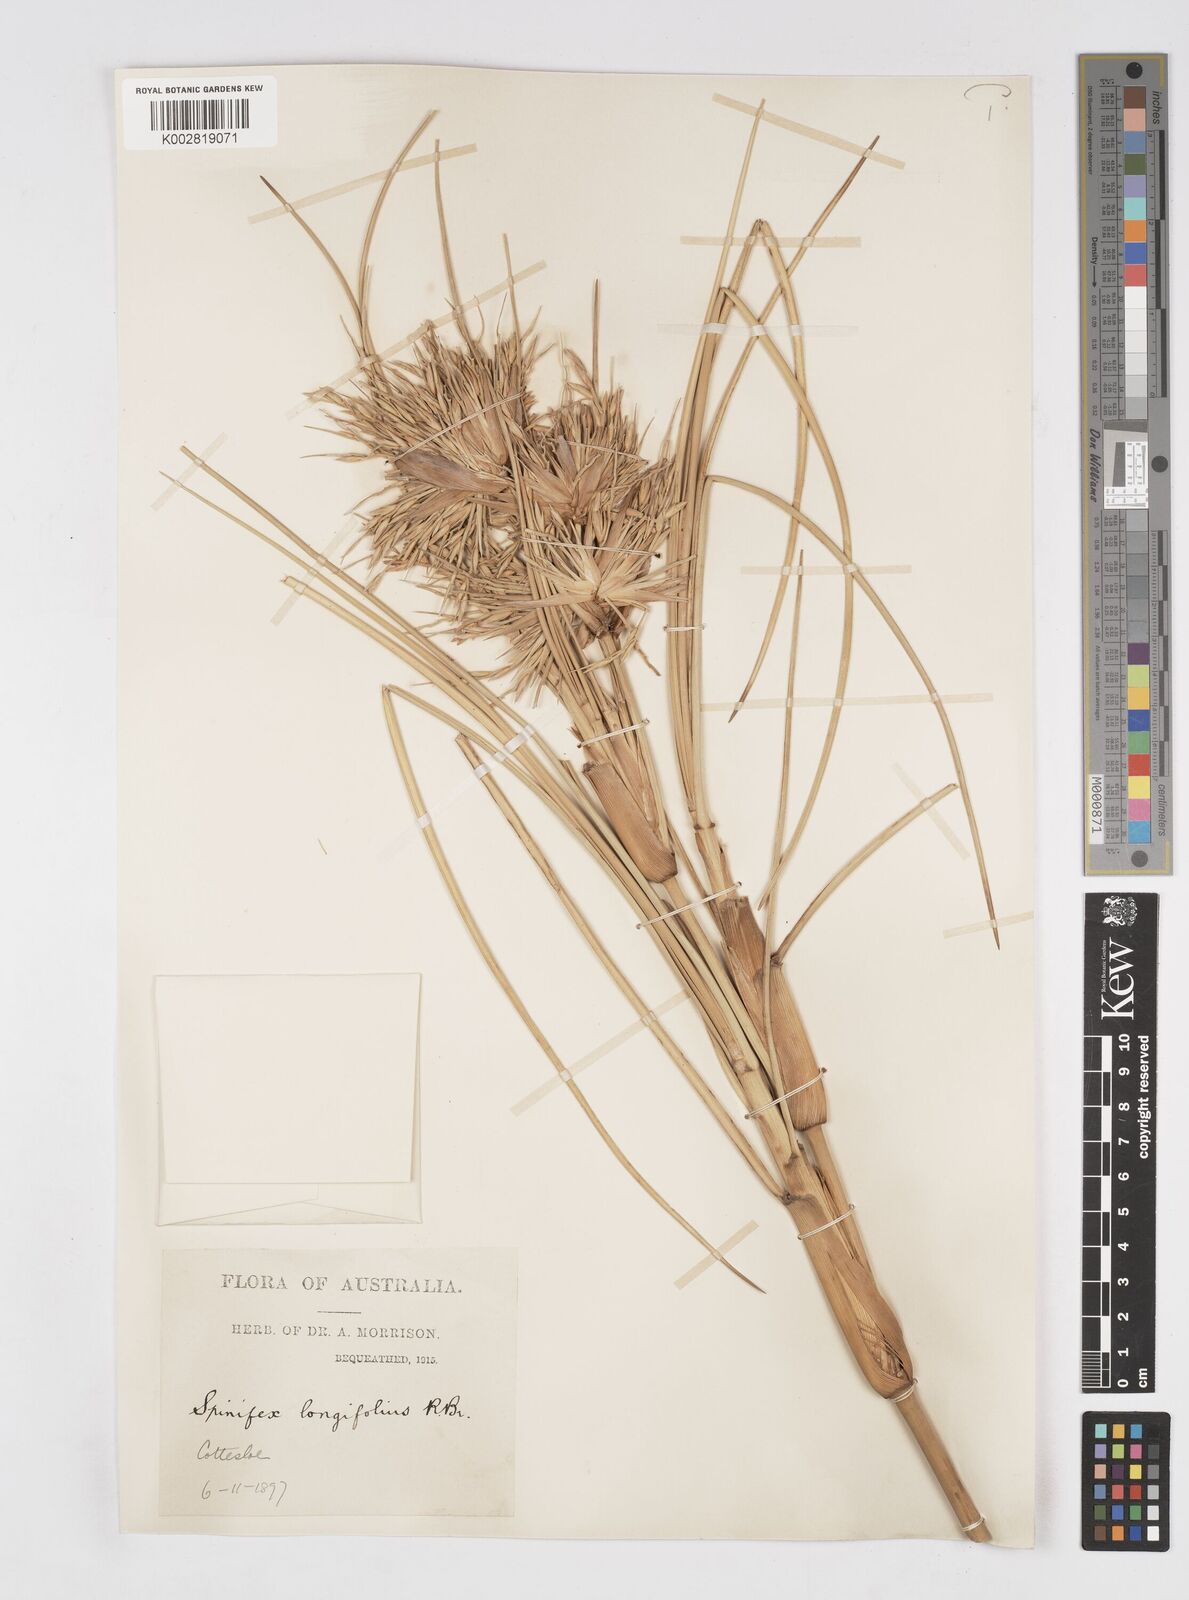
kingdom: Plantae
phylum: Tracheophyta
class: Liliopsida
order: Poales
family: Poaceae
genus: Spinifex
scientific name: Spinifex longifolius
